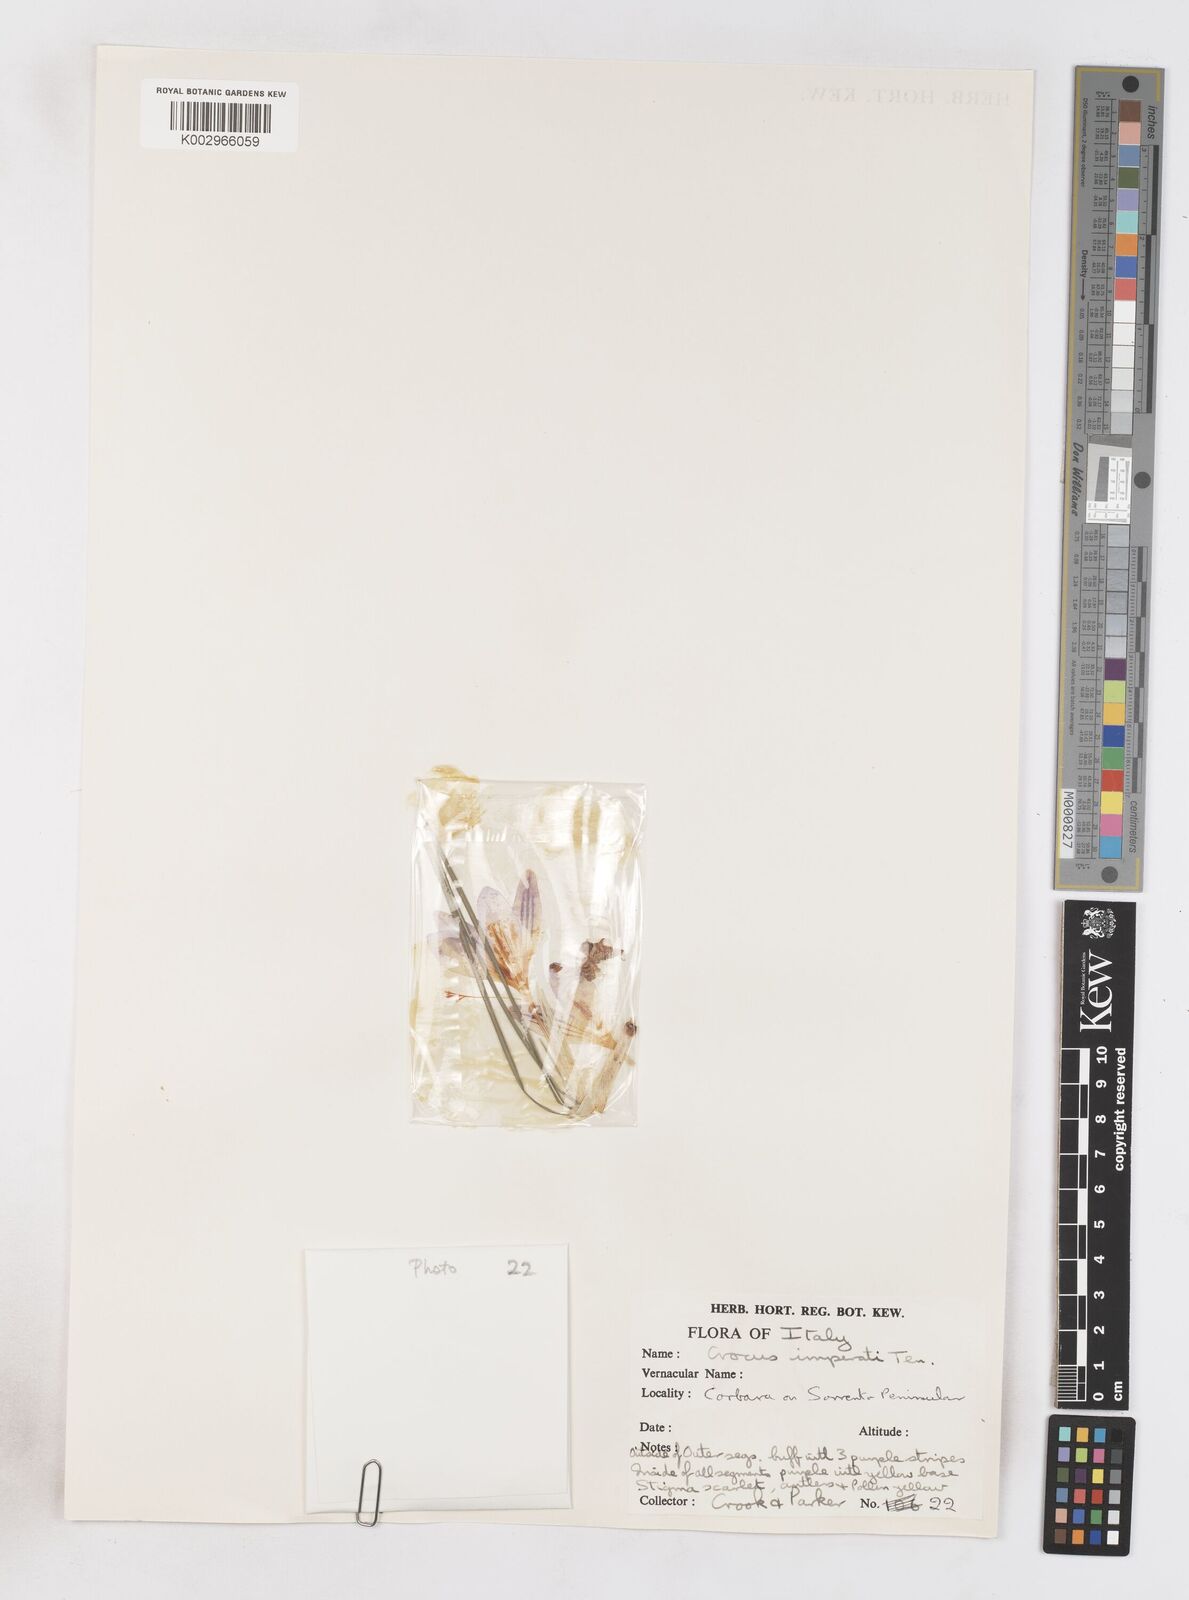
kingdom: Plantae
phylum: Tracheophyta
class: Liliopsida
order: Asparagales
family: Iridaceae
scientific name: Iridaceae
